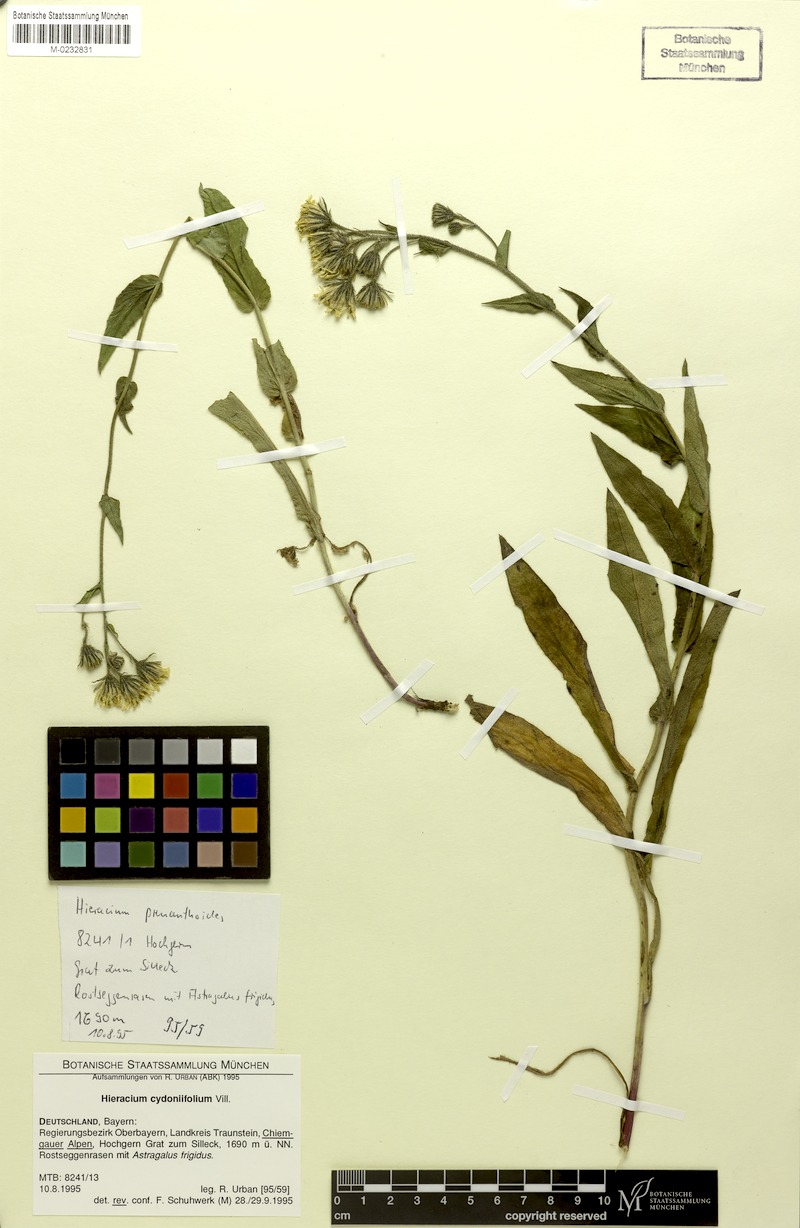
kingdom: Plantae
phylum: Tracheophyta
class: Magnoliopsida
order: Asterales
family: Asteraceae
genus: Hieracium
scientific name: Hieracium cydoniifolium
